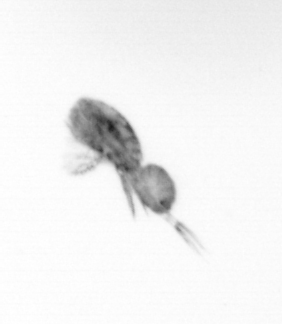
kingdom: Animalia
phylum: Arthropoda
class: Copepoda
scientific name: Copepoda
